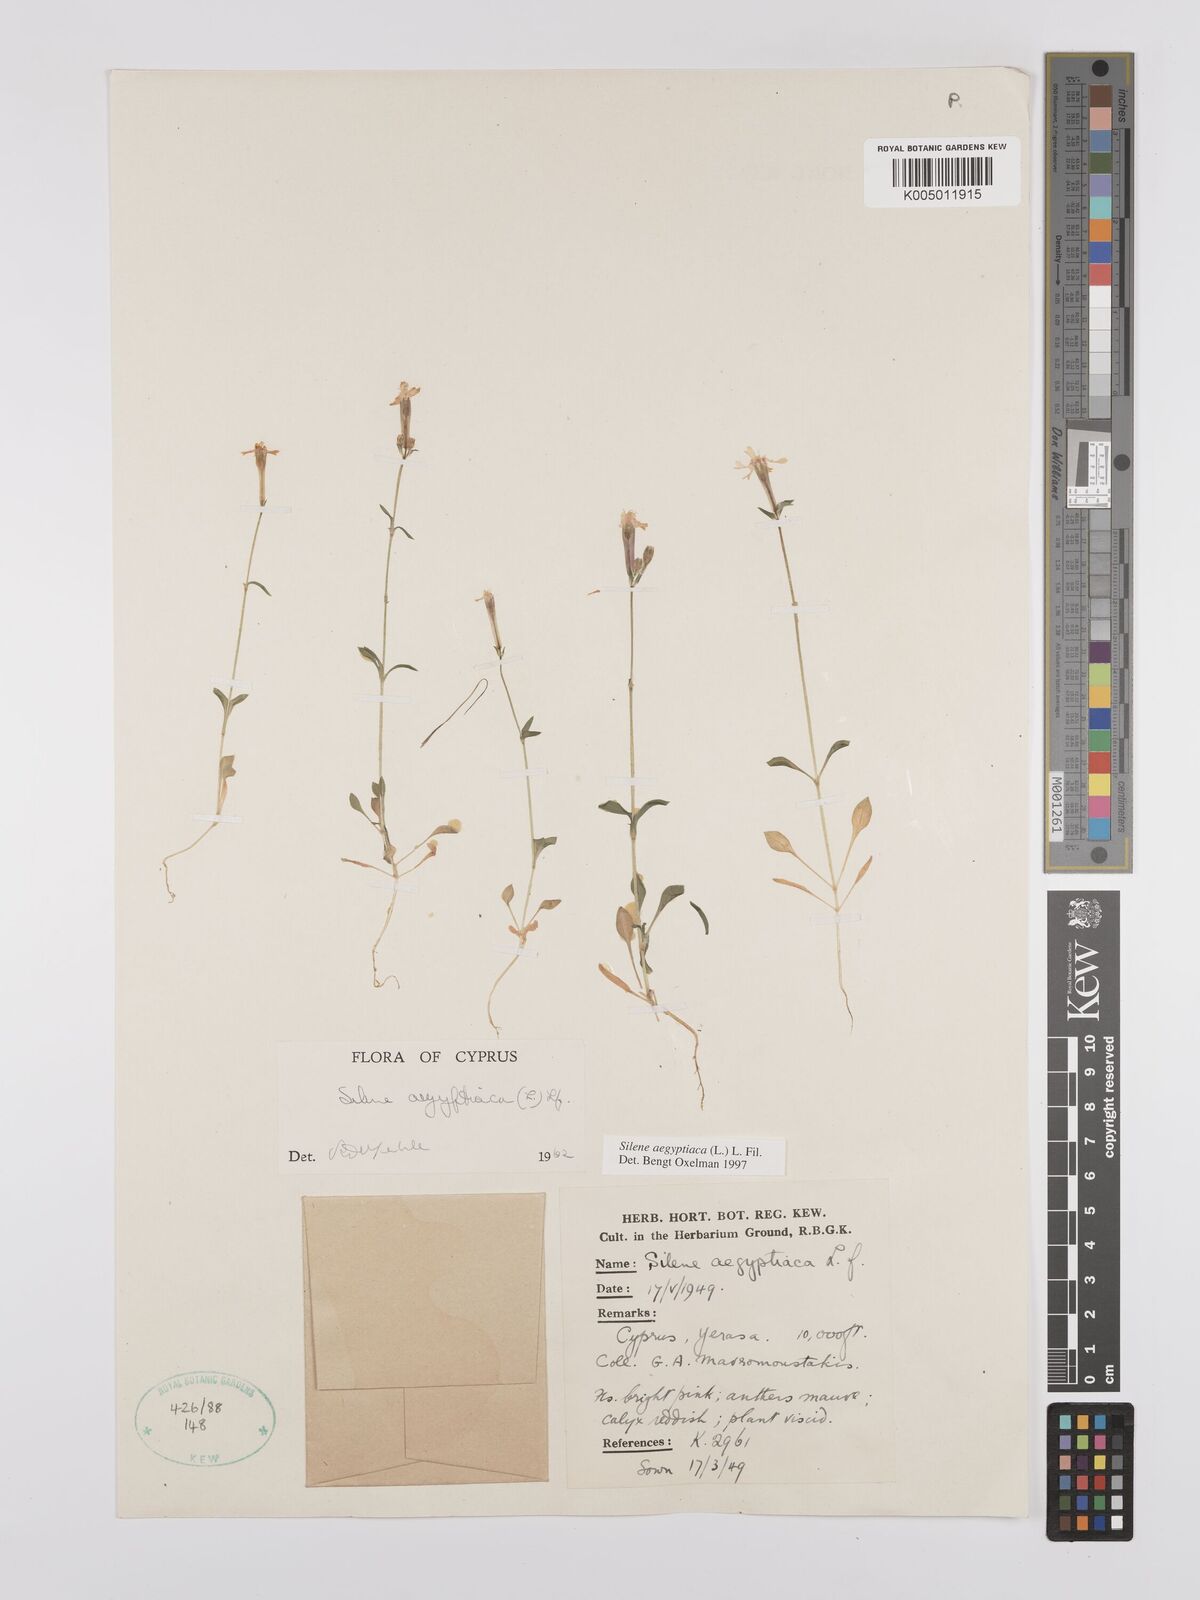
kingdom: Plantae
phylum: Tracheophyta
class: Magnoliopsida
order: Caryophyllales
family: Caryophyllaceae
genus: Silene
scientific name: Silene aegyptiaca
